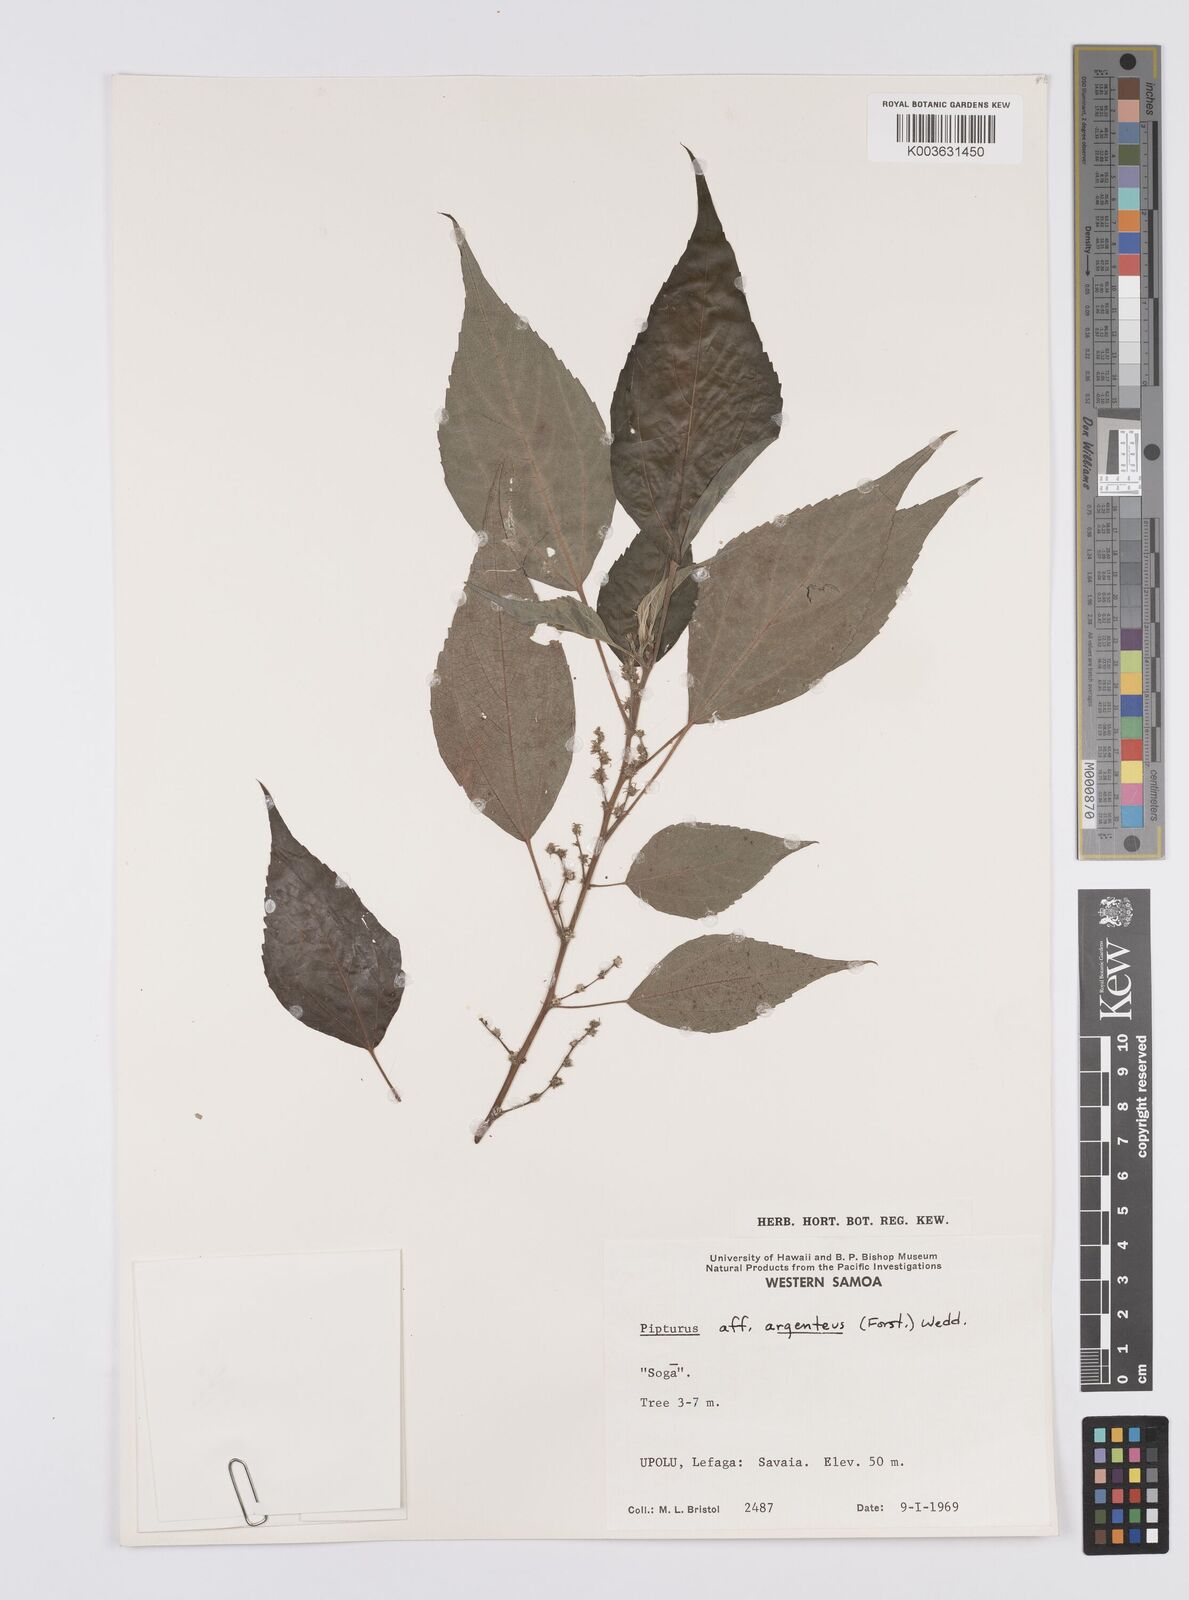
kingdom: Plantae
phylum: Tracheophyta
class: Magnoliopsida
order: Rosales
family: Urticaceae
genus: Pipturus
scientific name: Pipturus argenteus
